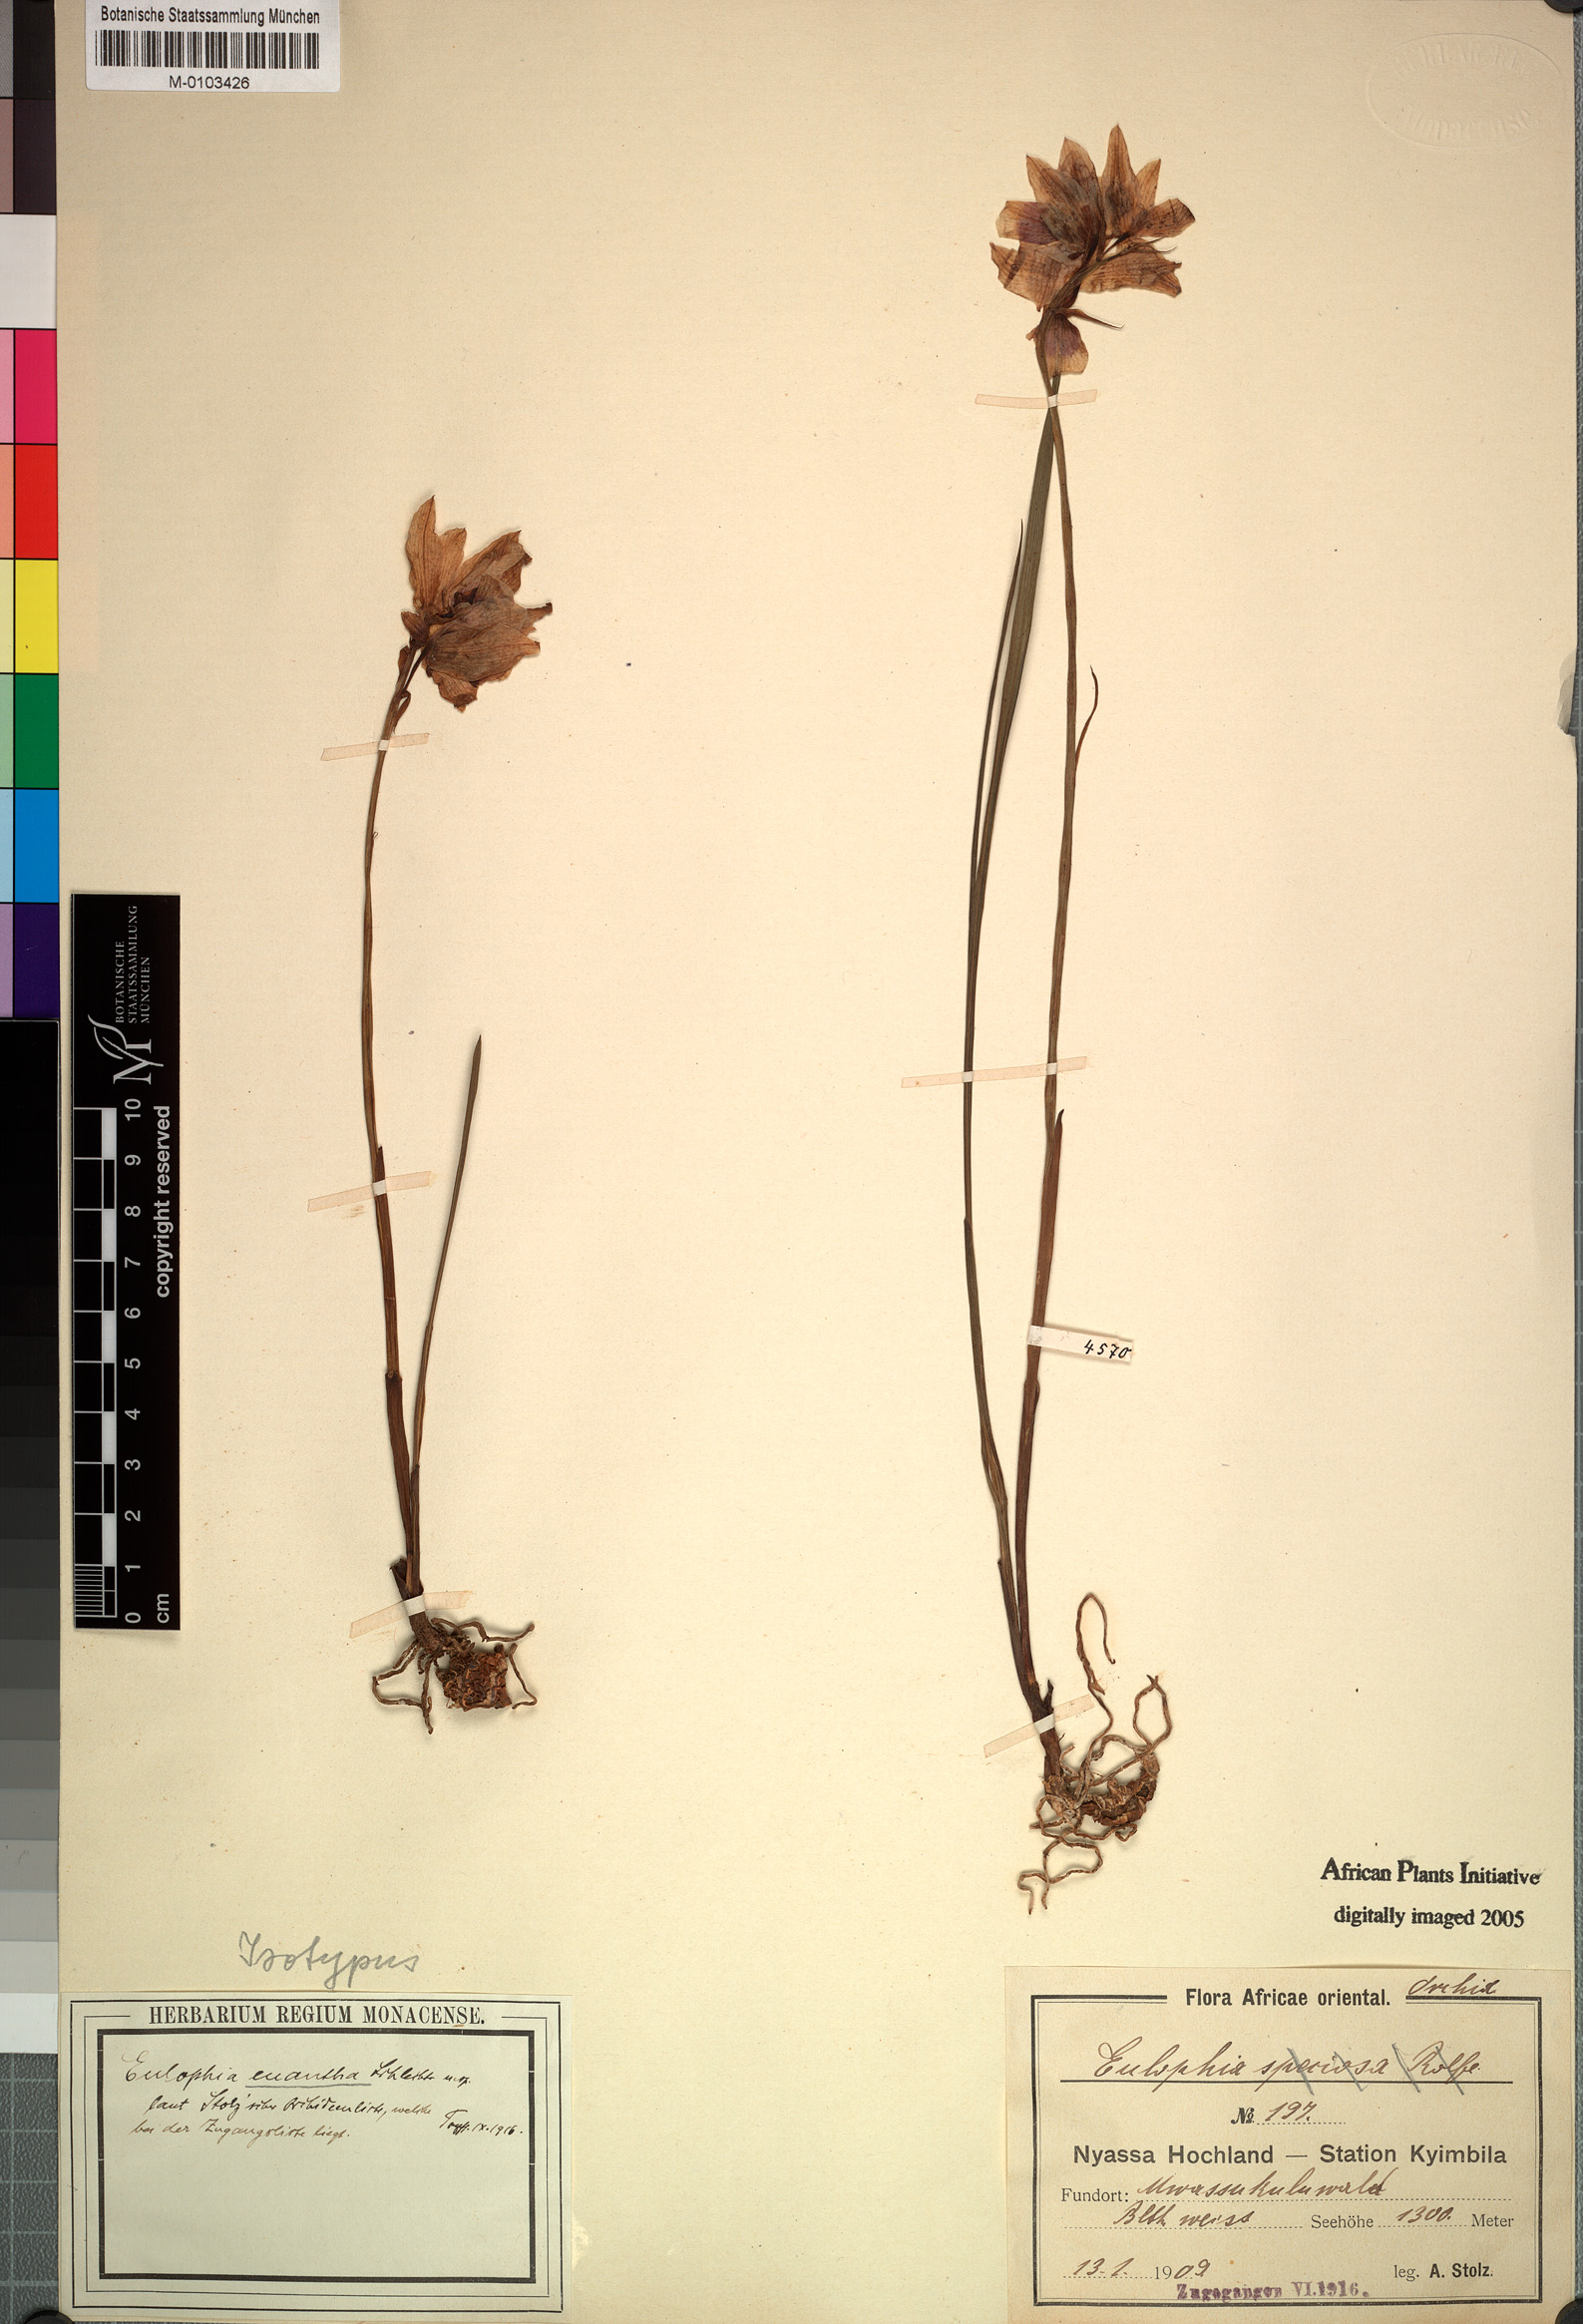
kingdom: Plantae
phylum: Tracheophyta
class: Liliopsida
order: Asparagales
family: Orchidaceae
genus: Eulophia
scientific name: Eulophia euantha
